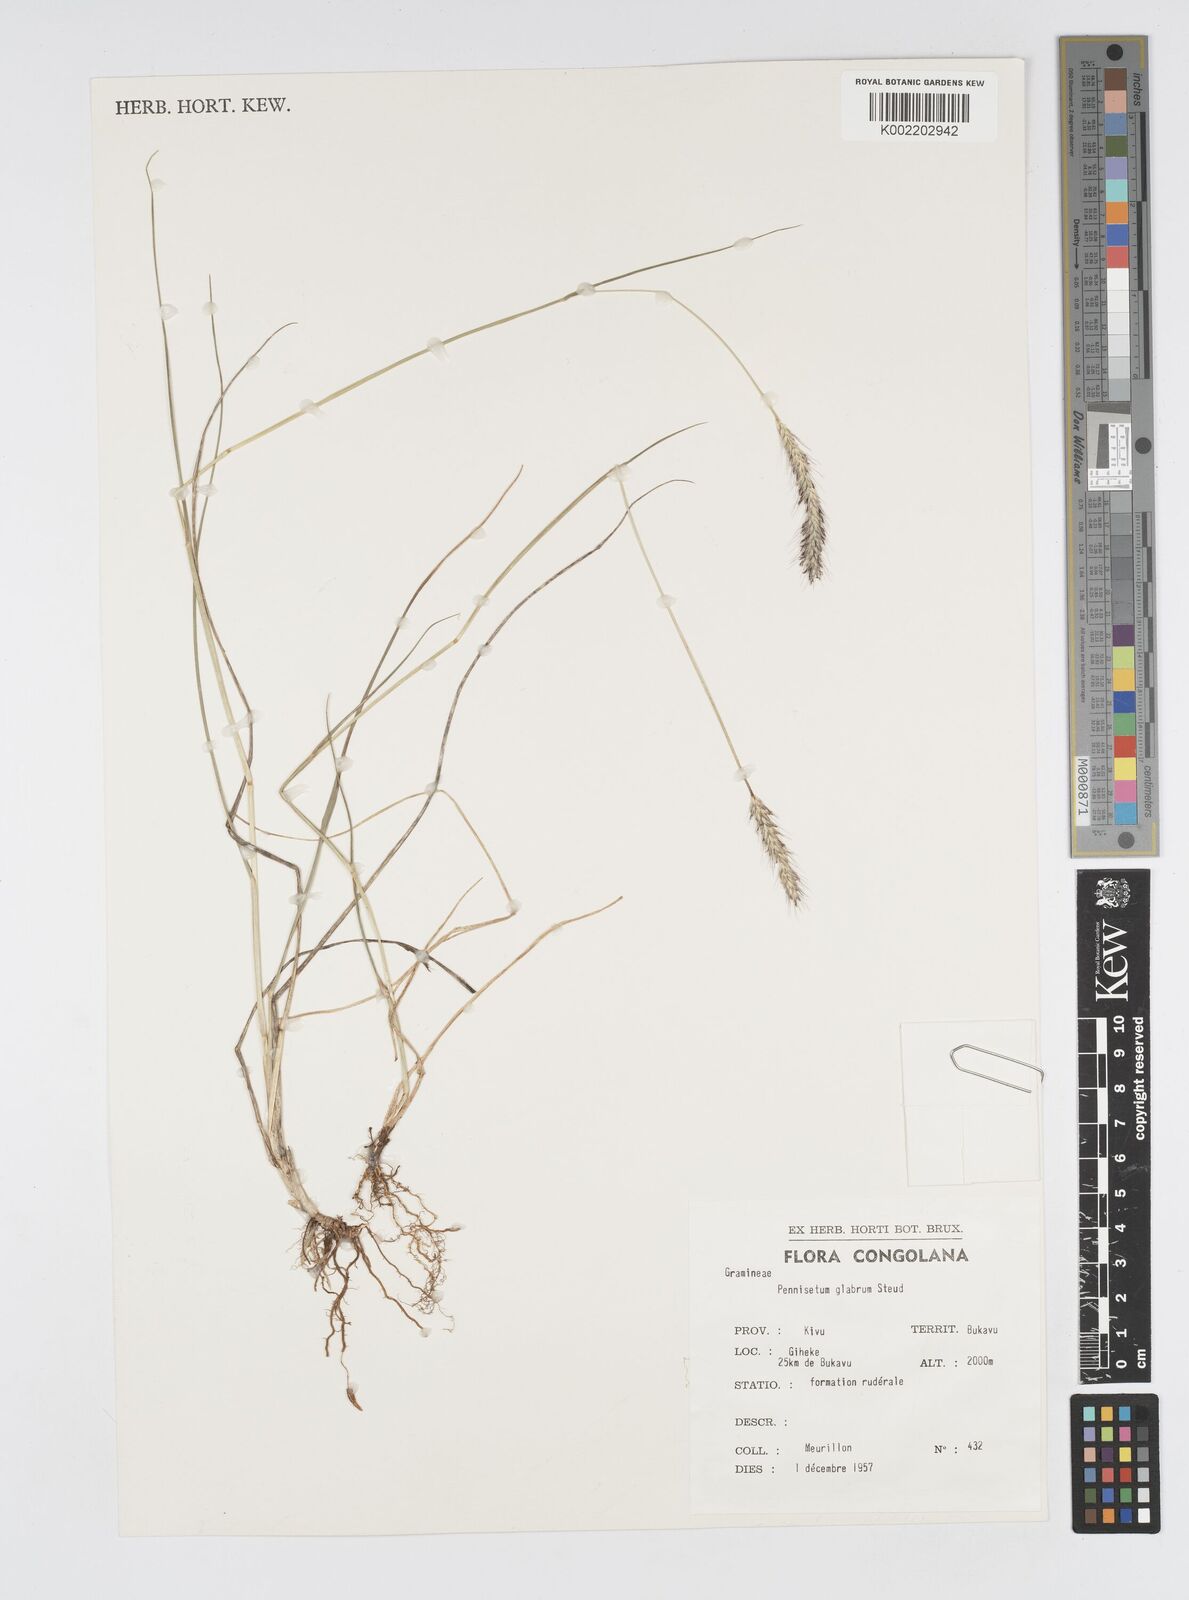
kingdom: Plantae
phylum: Tracheophyta
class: Liliopsida
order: Poales
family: Poaceae
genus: Cenchrus
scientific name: Cenchrus geniculatus
